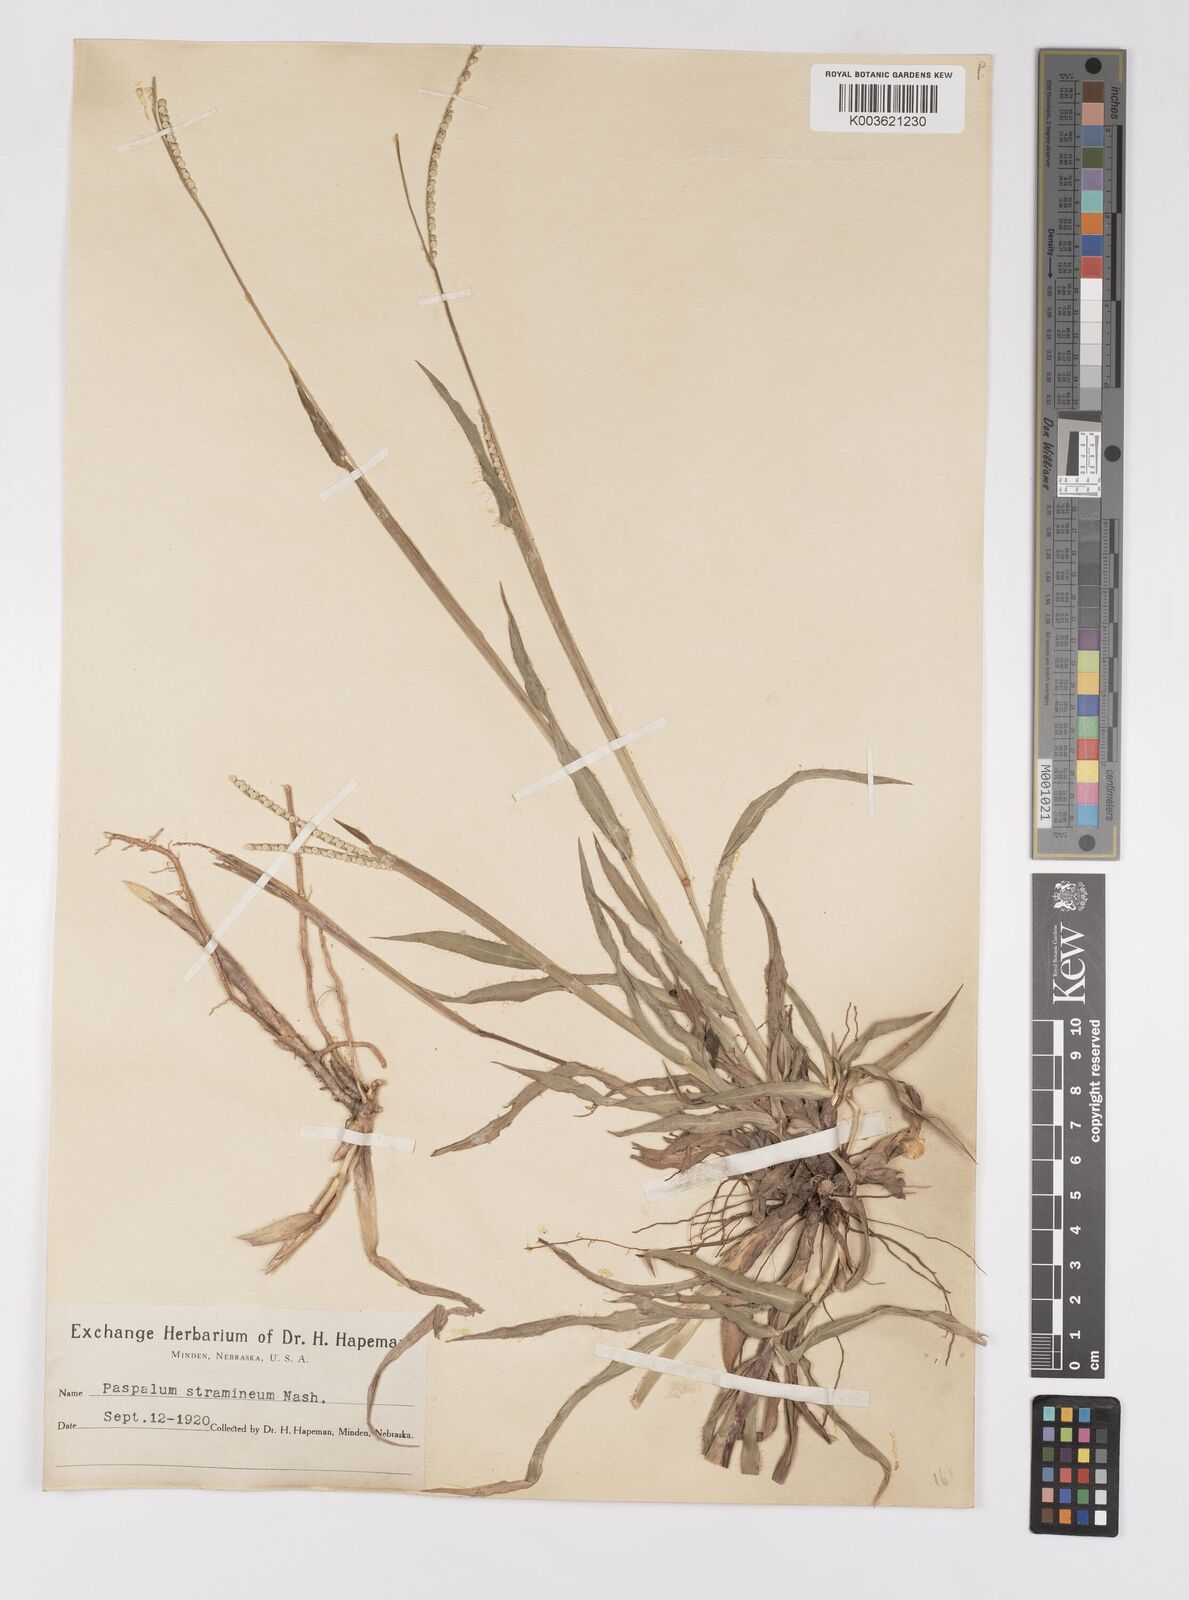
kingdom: Plantae
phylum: Tracheophyta
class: Liliopsida
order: Poales
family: Poaceae
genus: Paspalum
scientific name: Paspalum setaceum
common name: Slender paspalum
